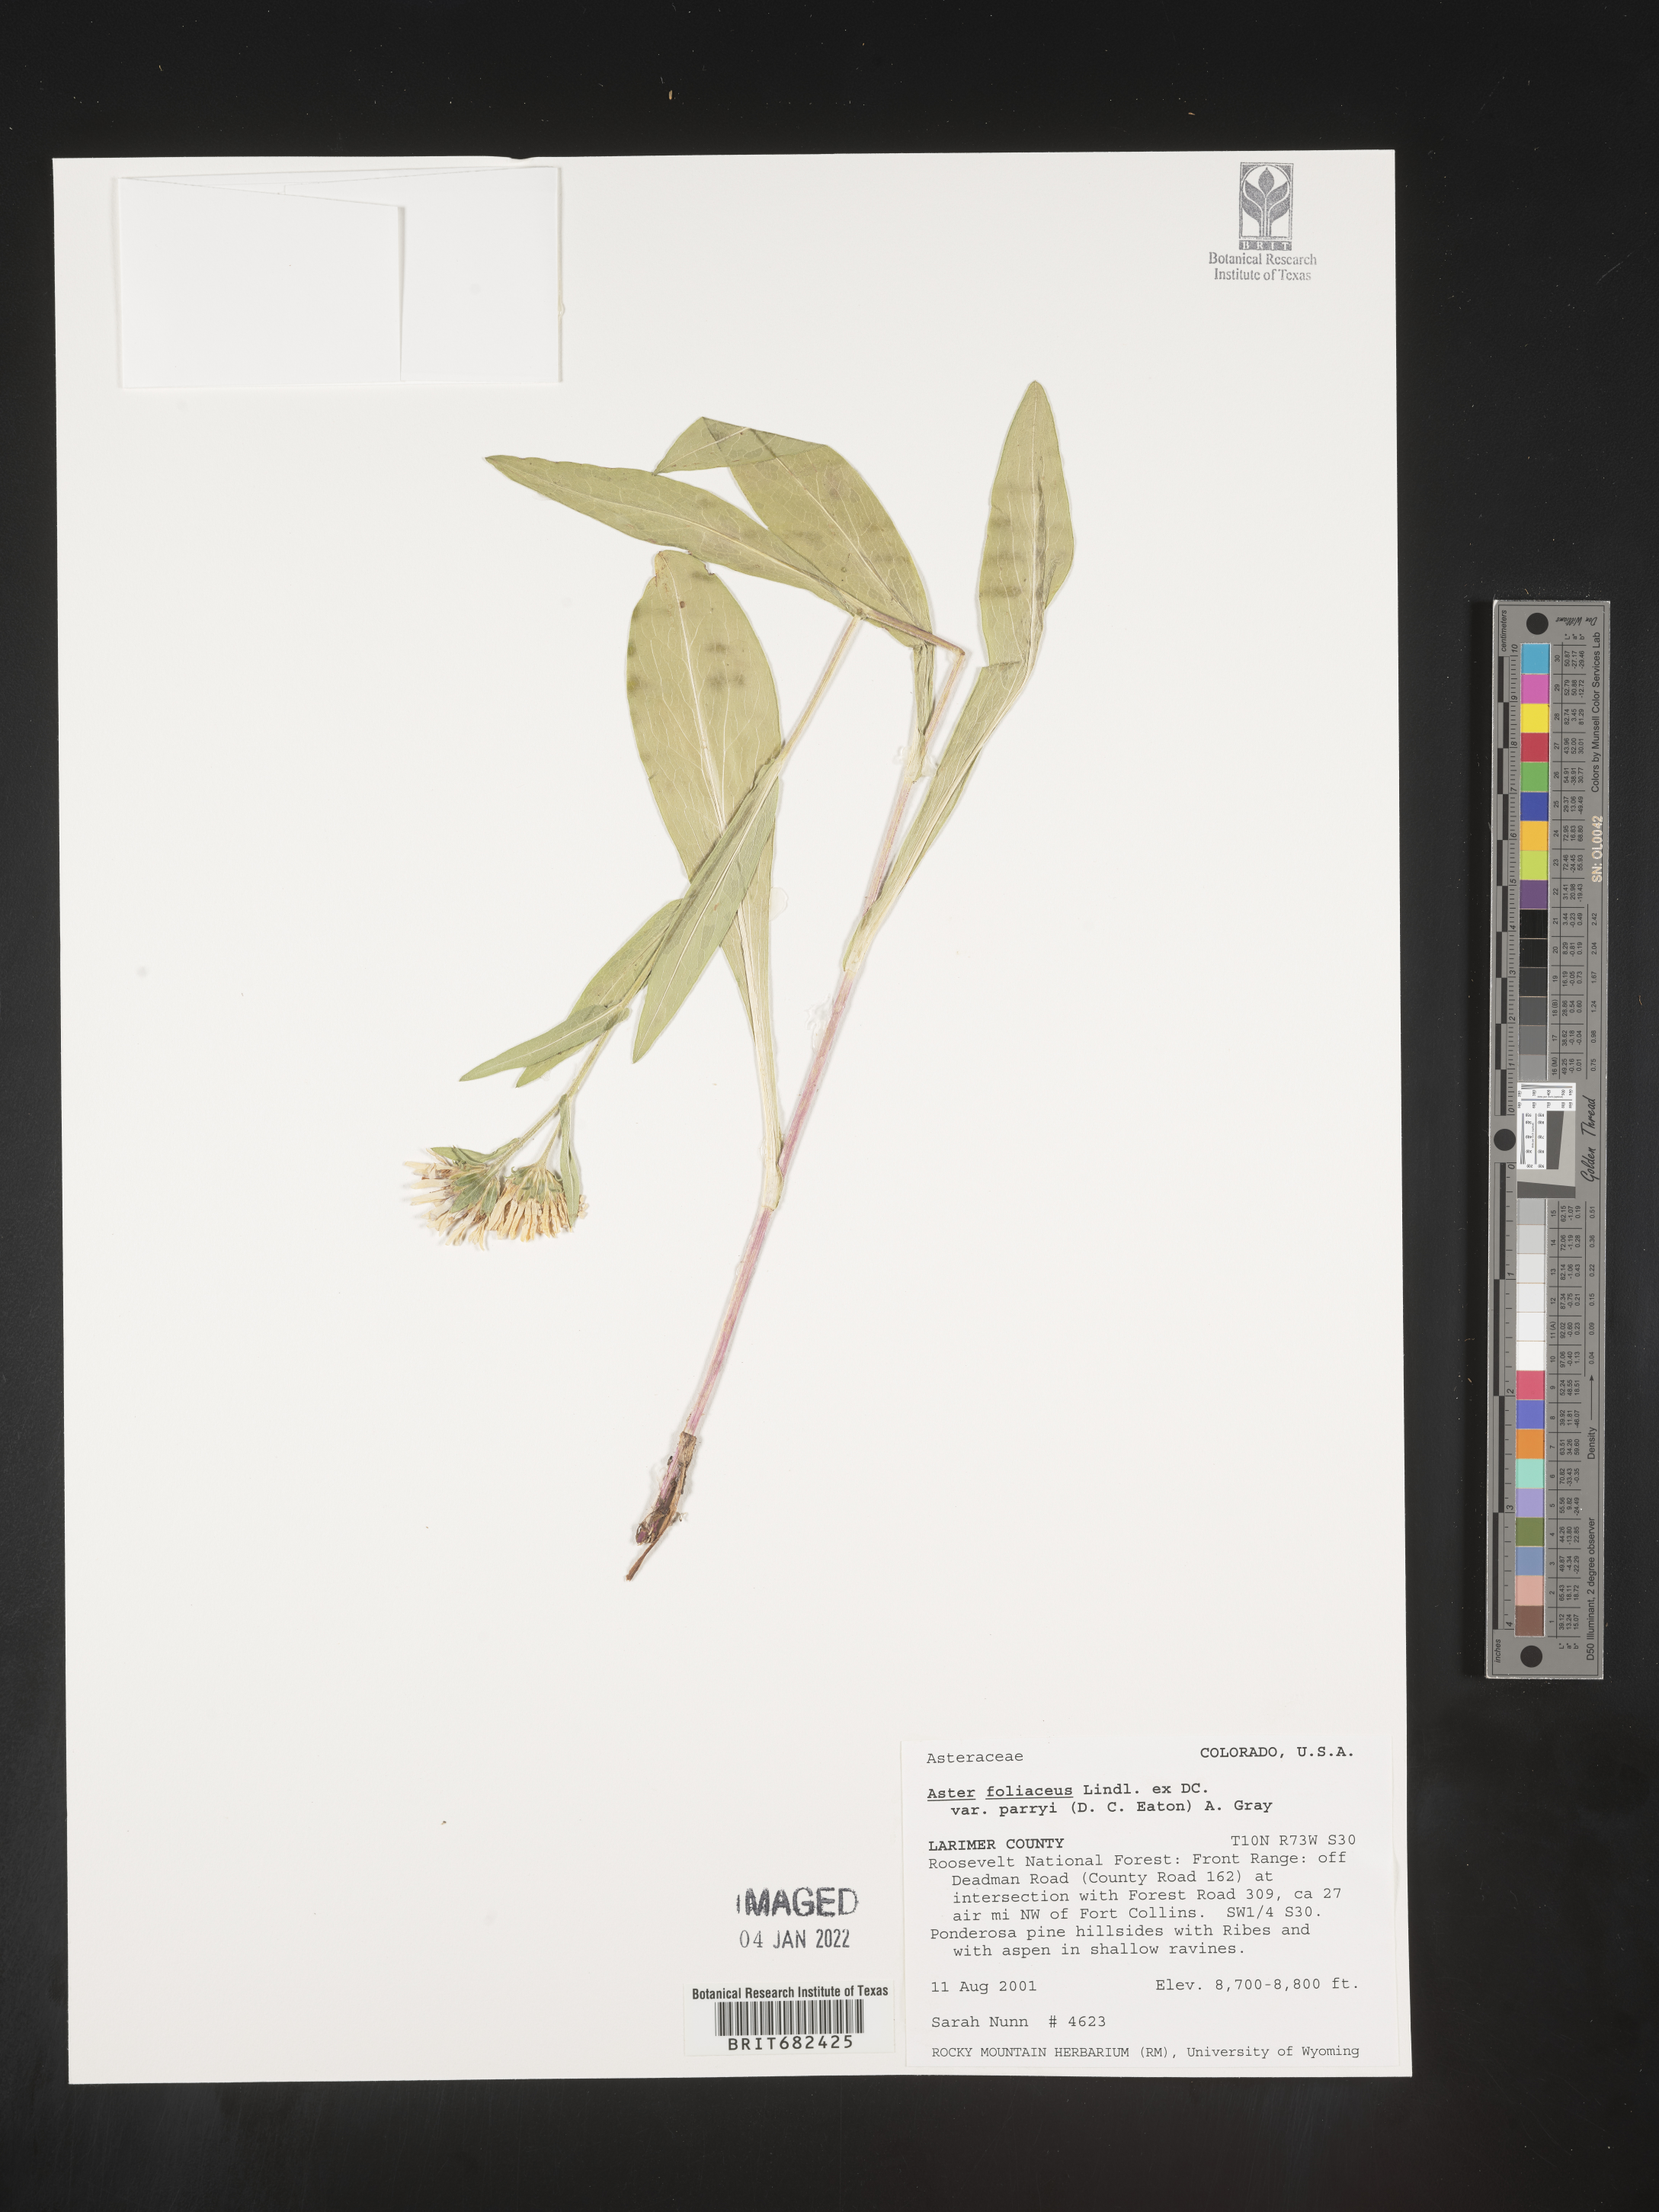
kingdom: Plantae
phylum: Tracheophyta
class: Magnoliopsida
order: Asterales
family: Asteraceae
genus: Aster
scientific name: Aster
